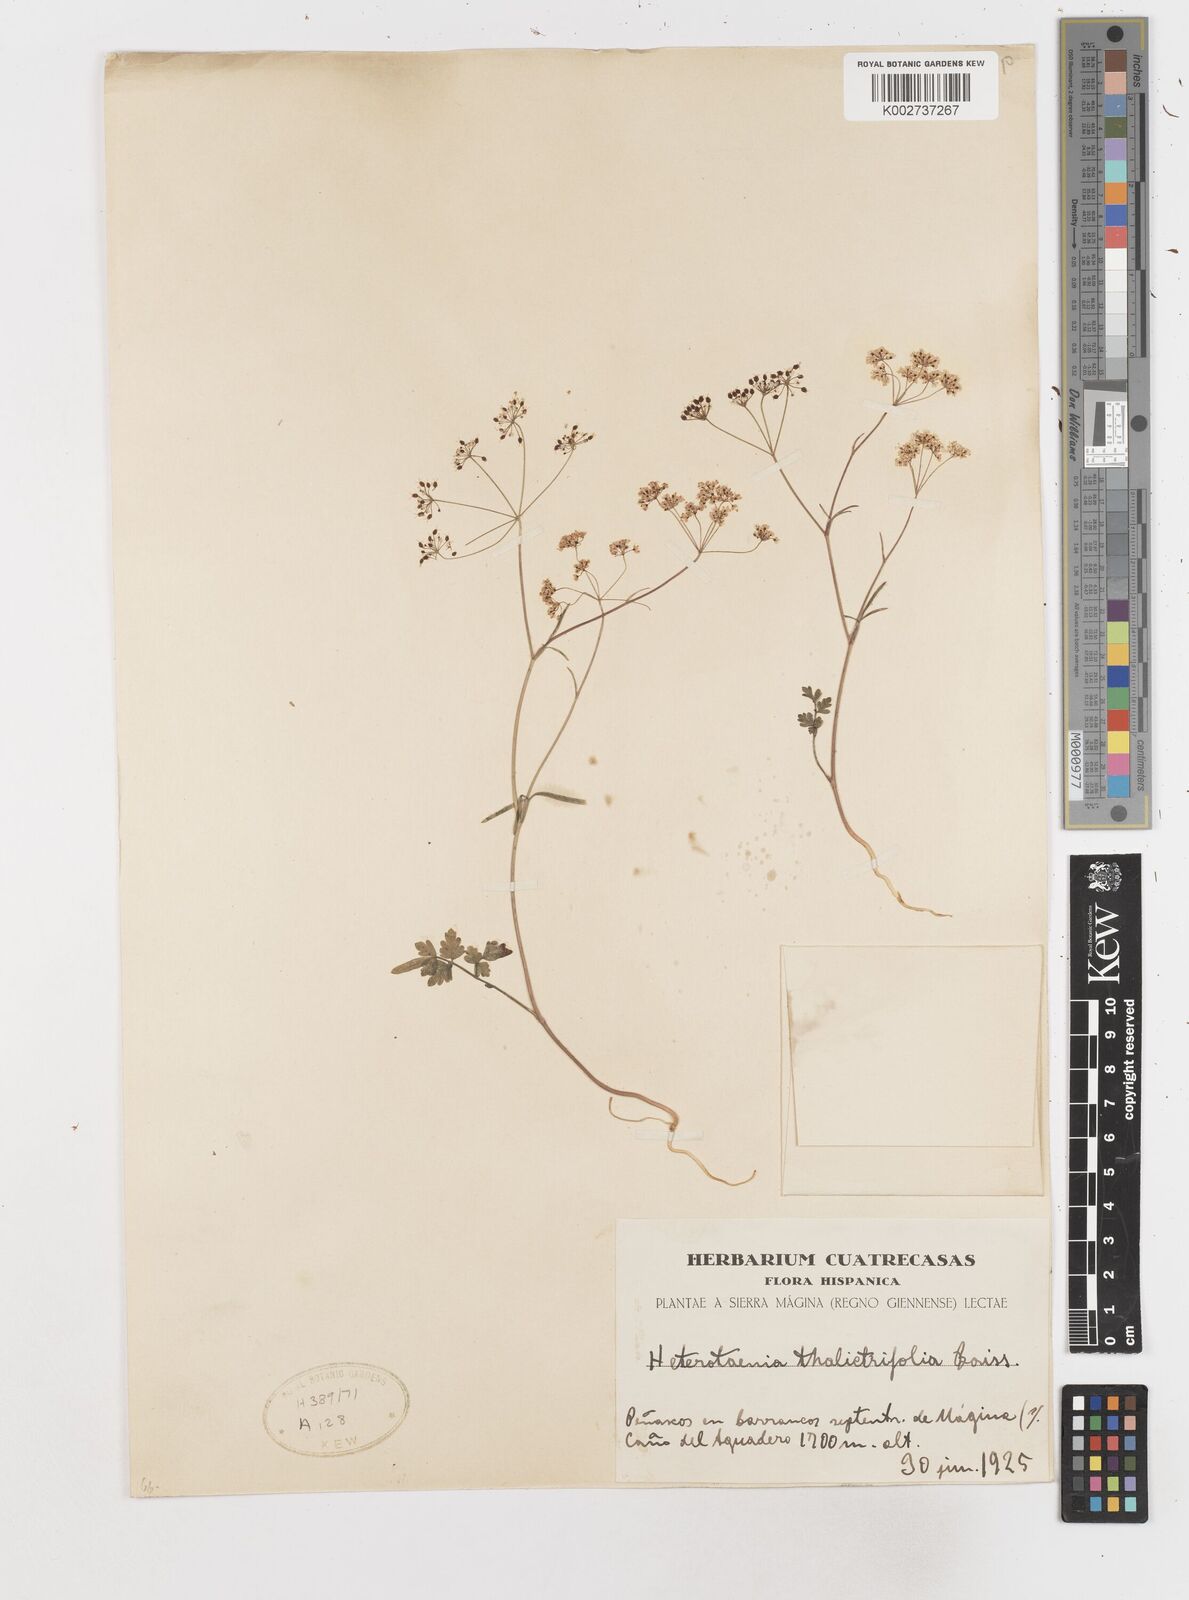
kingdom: Plantae
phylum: Tracheophyta
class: Magnoliopsida
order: Apiales
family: Apiaceae
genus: Conopodium
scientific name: Conopodium thalictrifolium
